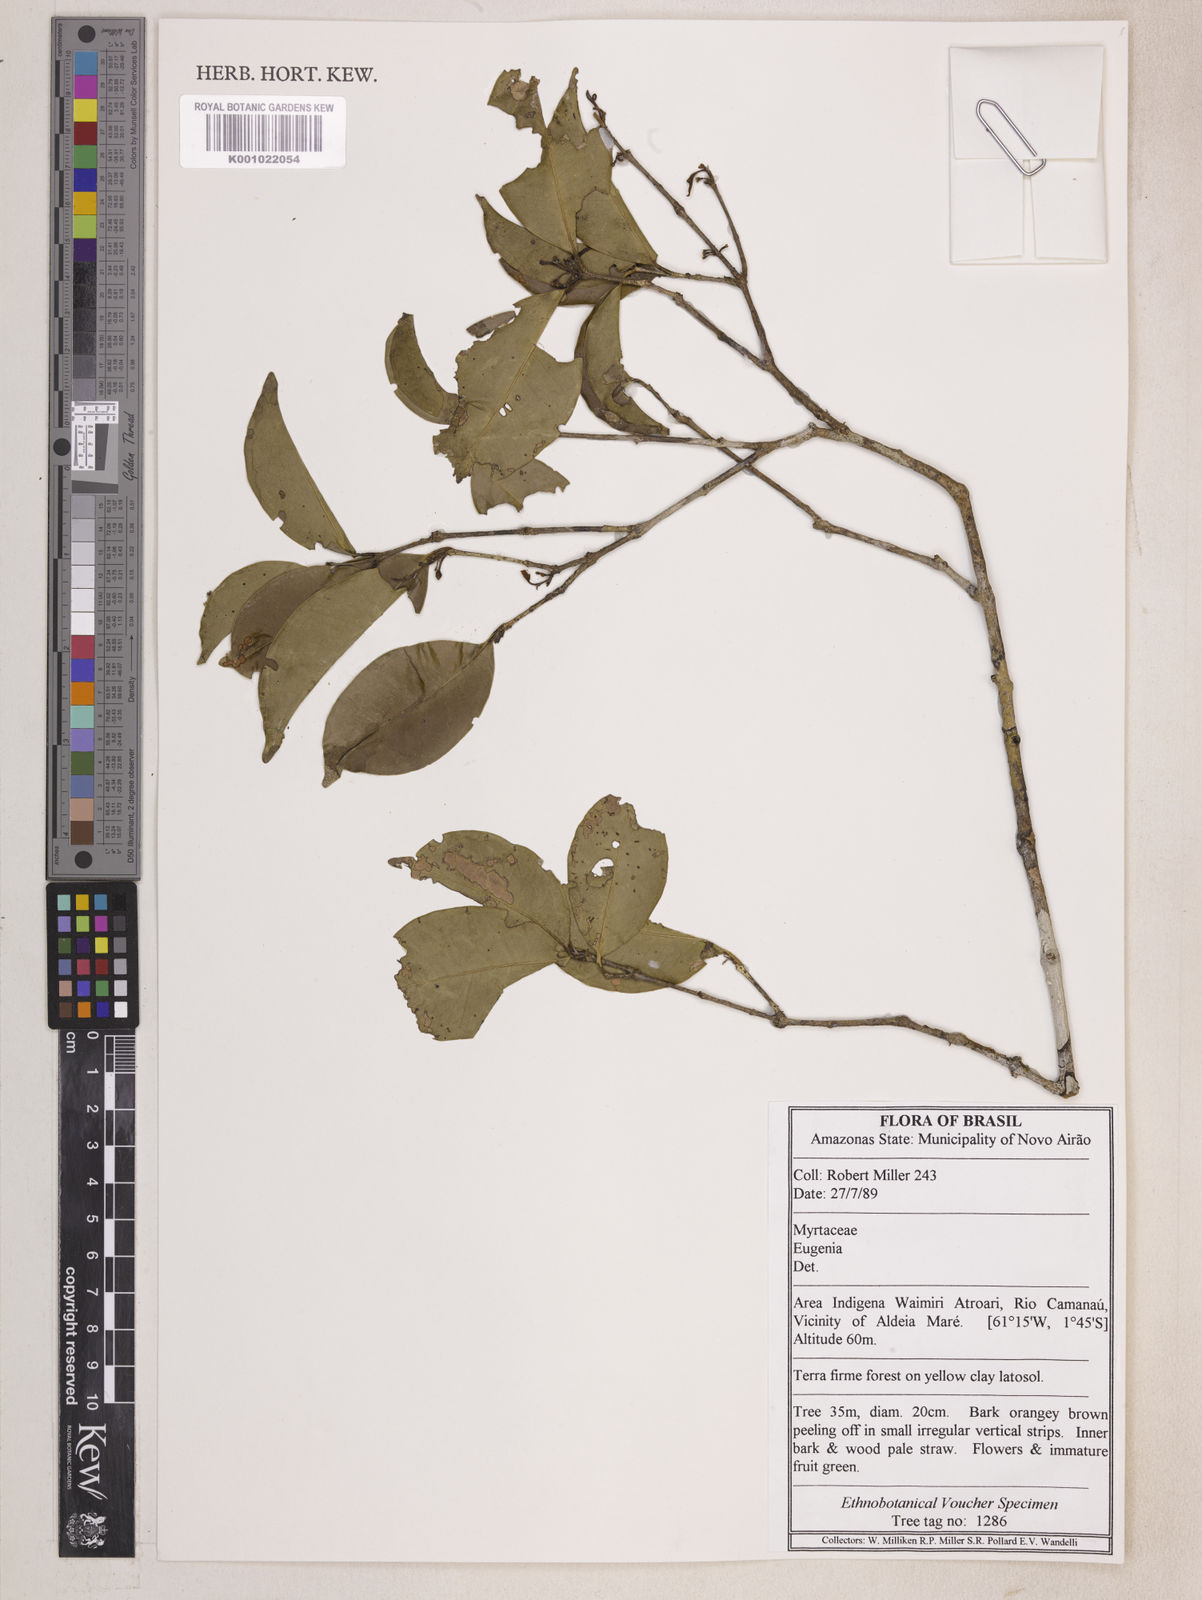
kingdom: Plantae
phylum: Tracheophyta
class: Magnoliopsida
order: Myrtales
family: Myrtaceae
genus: Eugenia
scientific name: Eugenia polystachya
